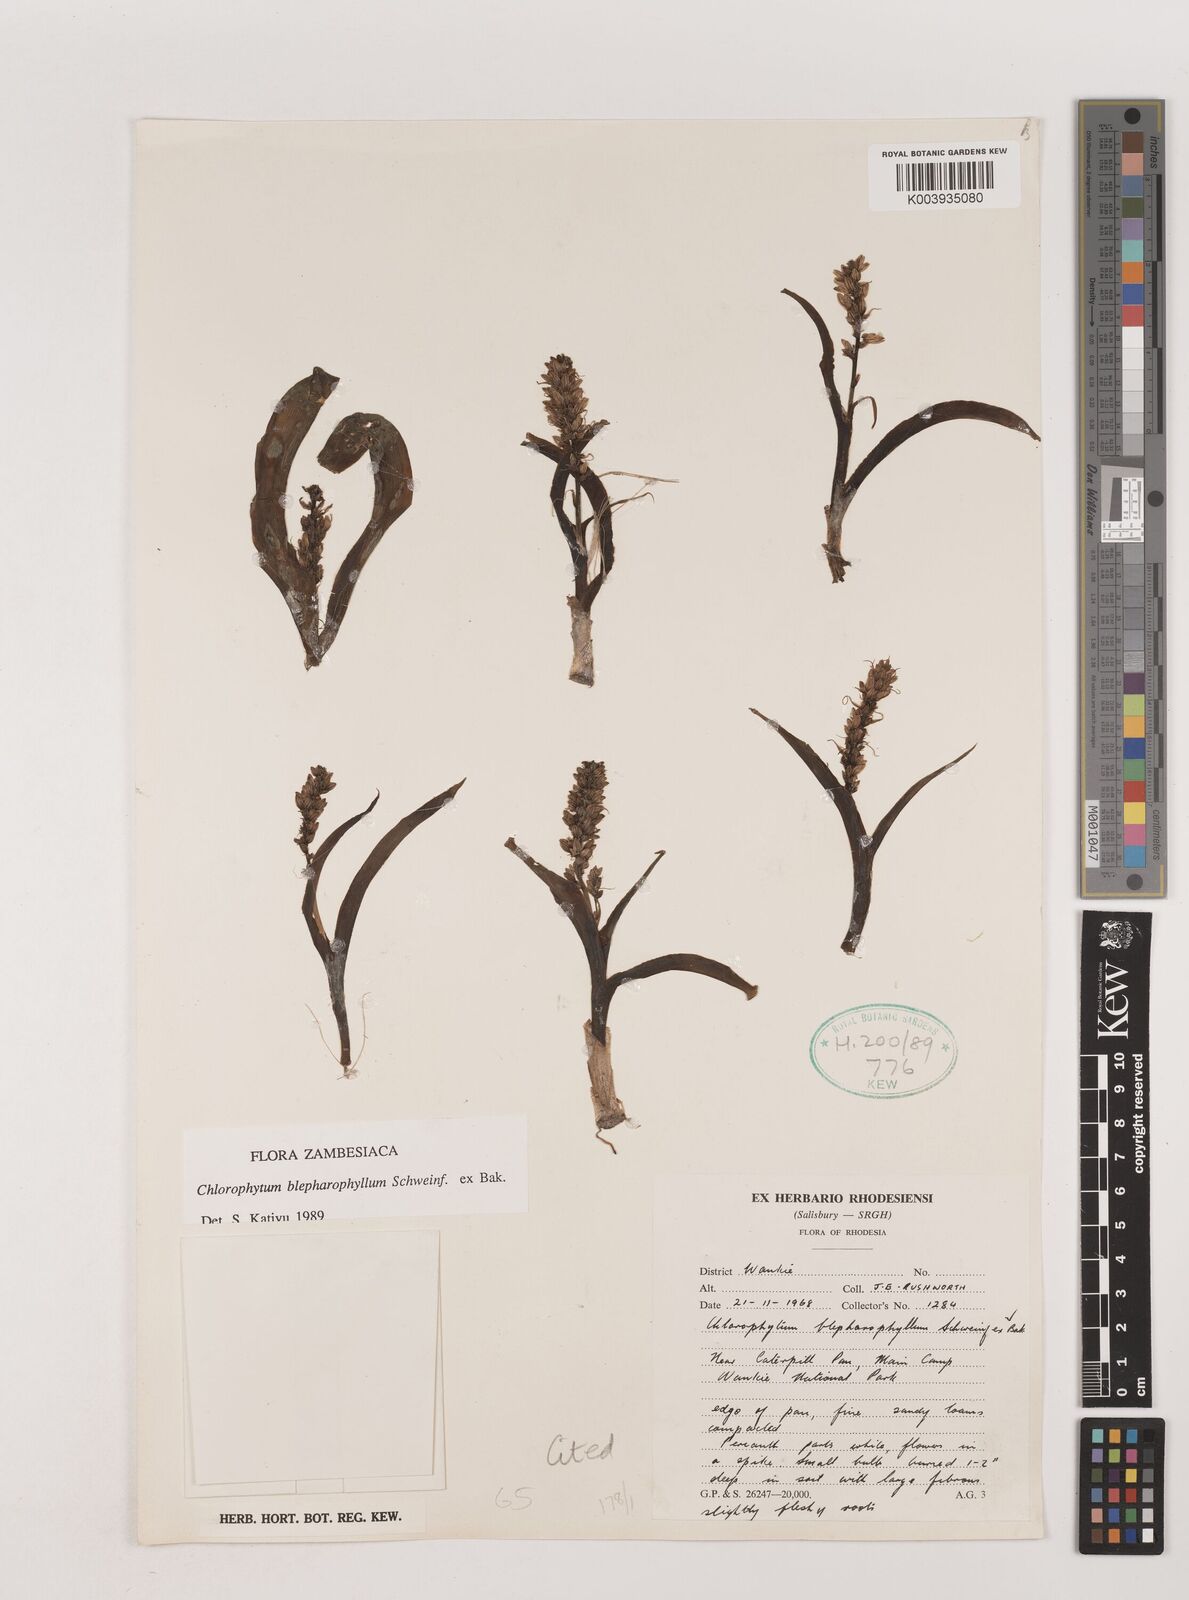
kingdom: Plantae
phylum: Tracheophyta
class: Liliopsida
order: Asparagales
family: Asparagaceae
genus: Chlorophytum
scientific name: Chlorophytum blepharophyllum
